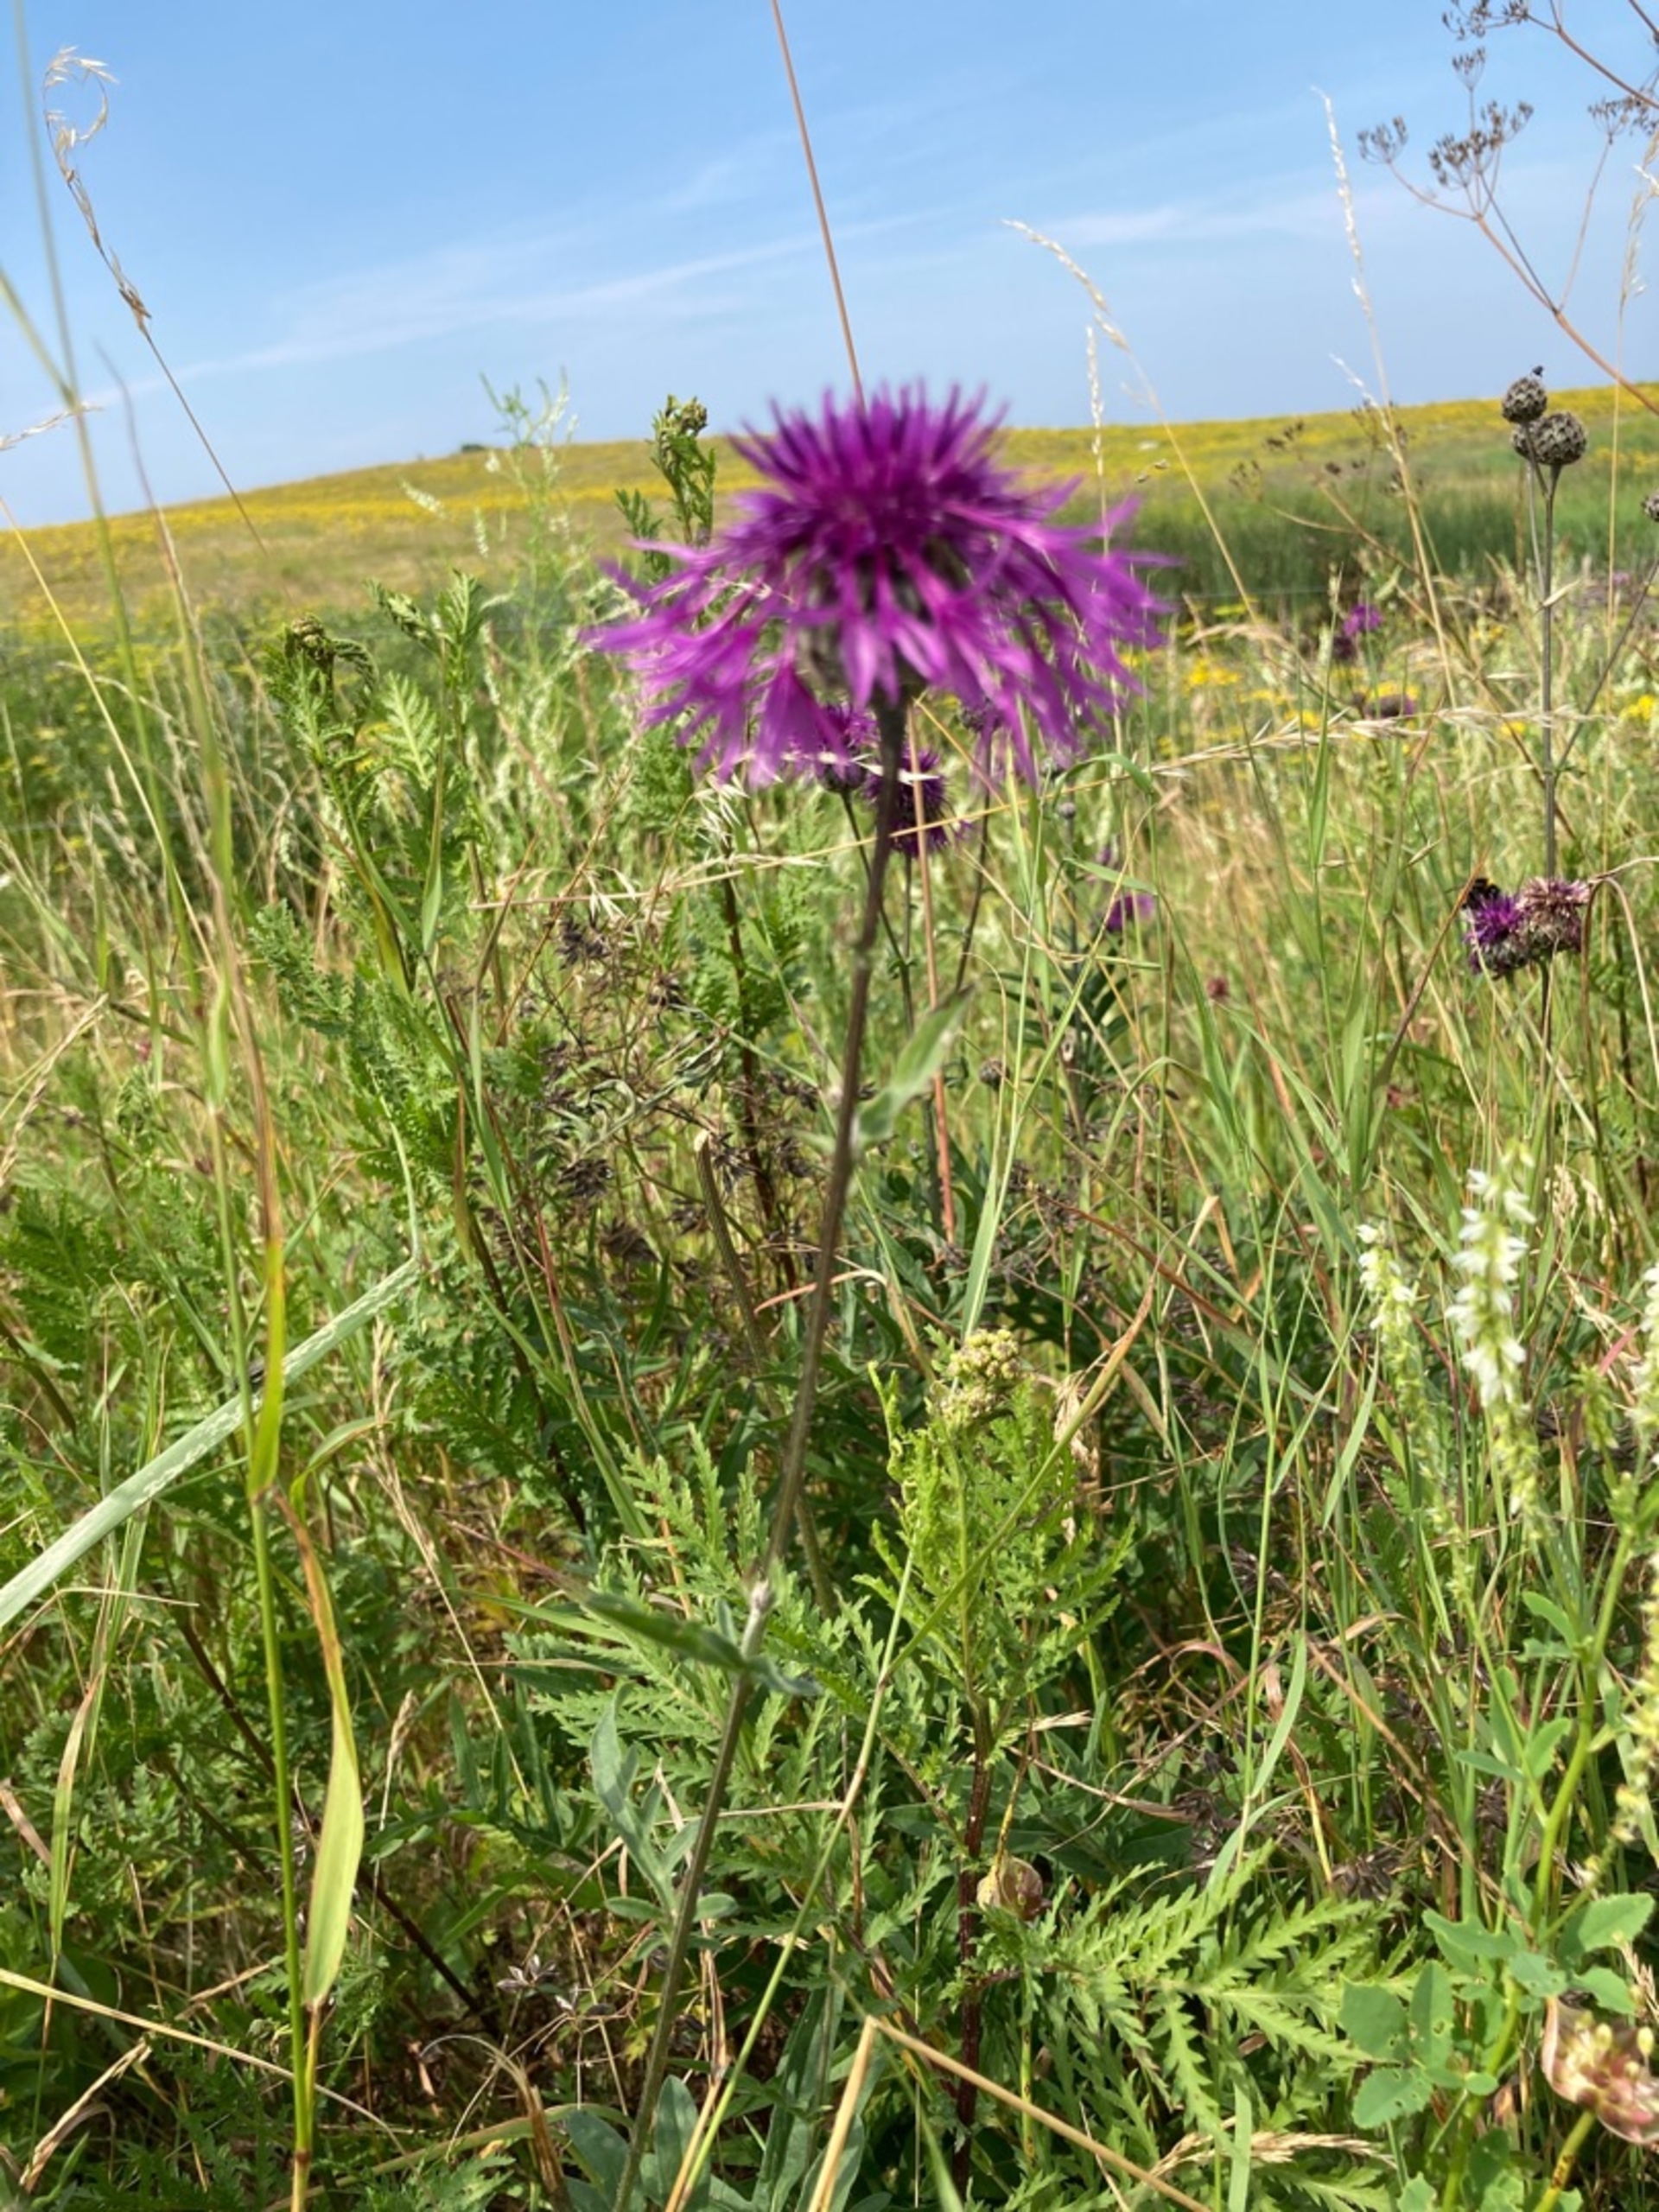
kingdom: Plantae
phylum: Tracheophyta
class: Magnoliopsida
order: Asterales
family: Asteraceae
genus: Centaurea
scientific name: Centaurea scabiosa
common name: Stor knopurt
